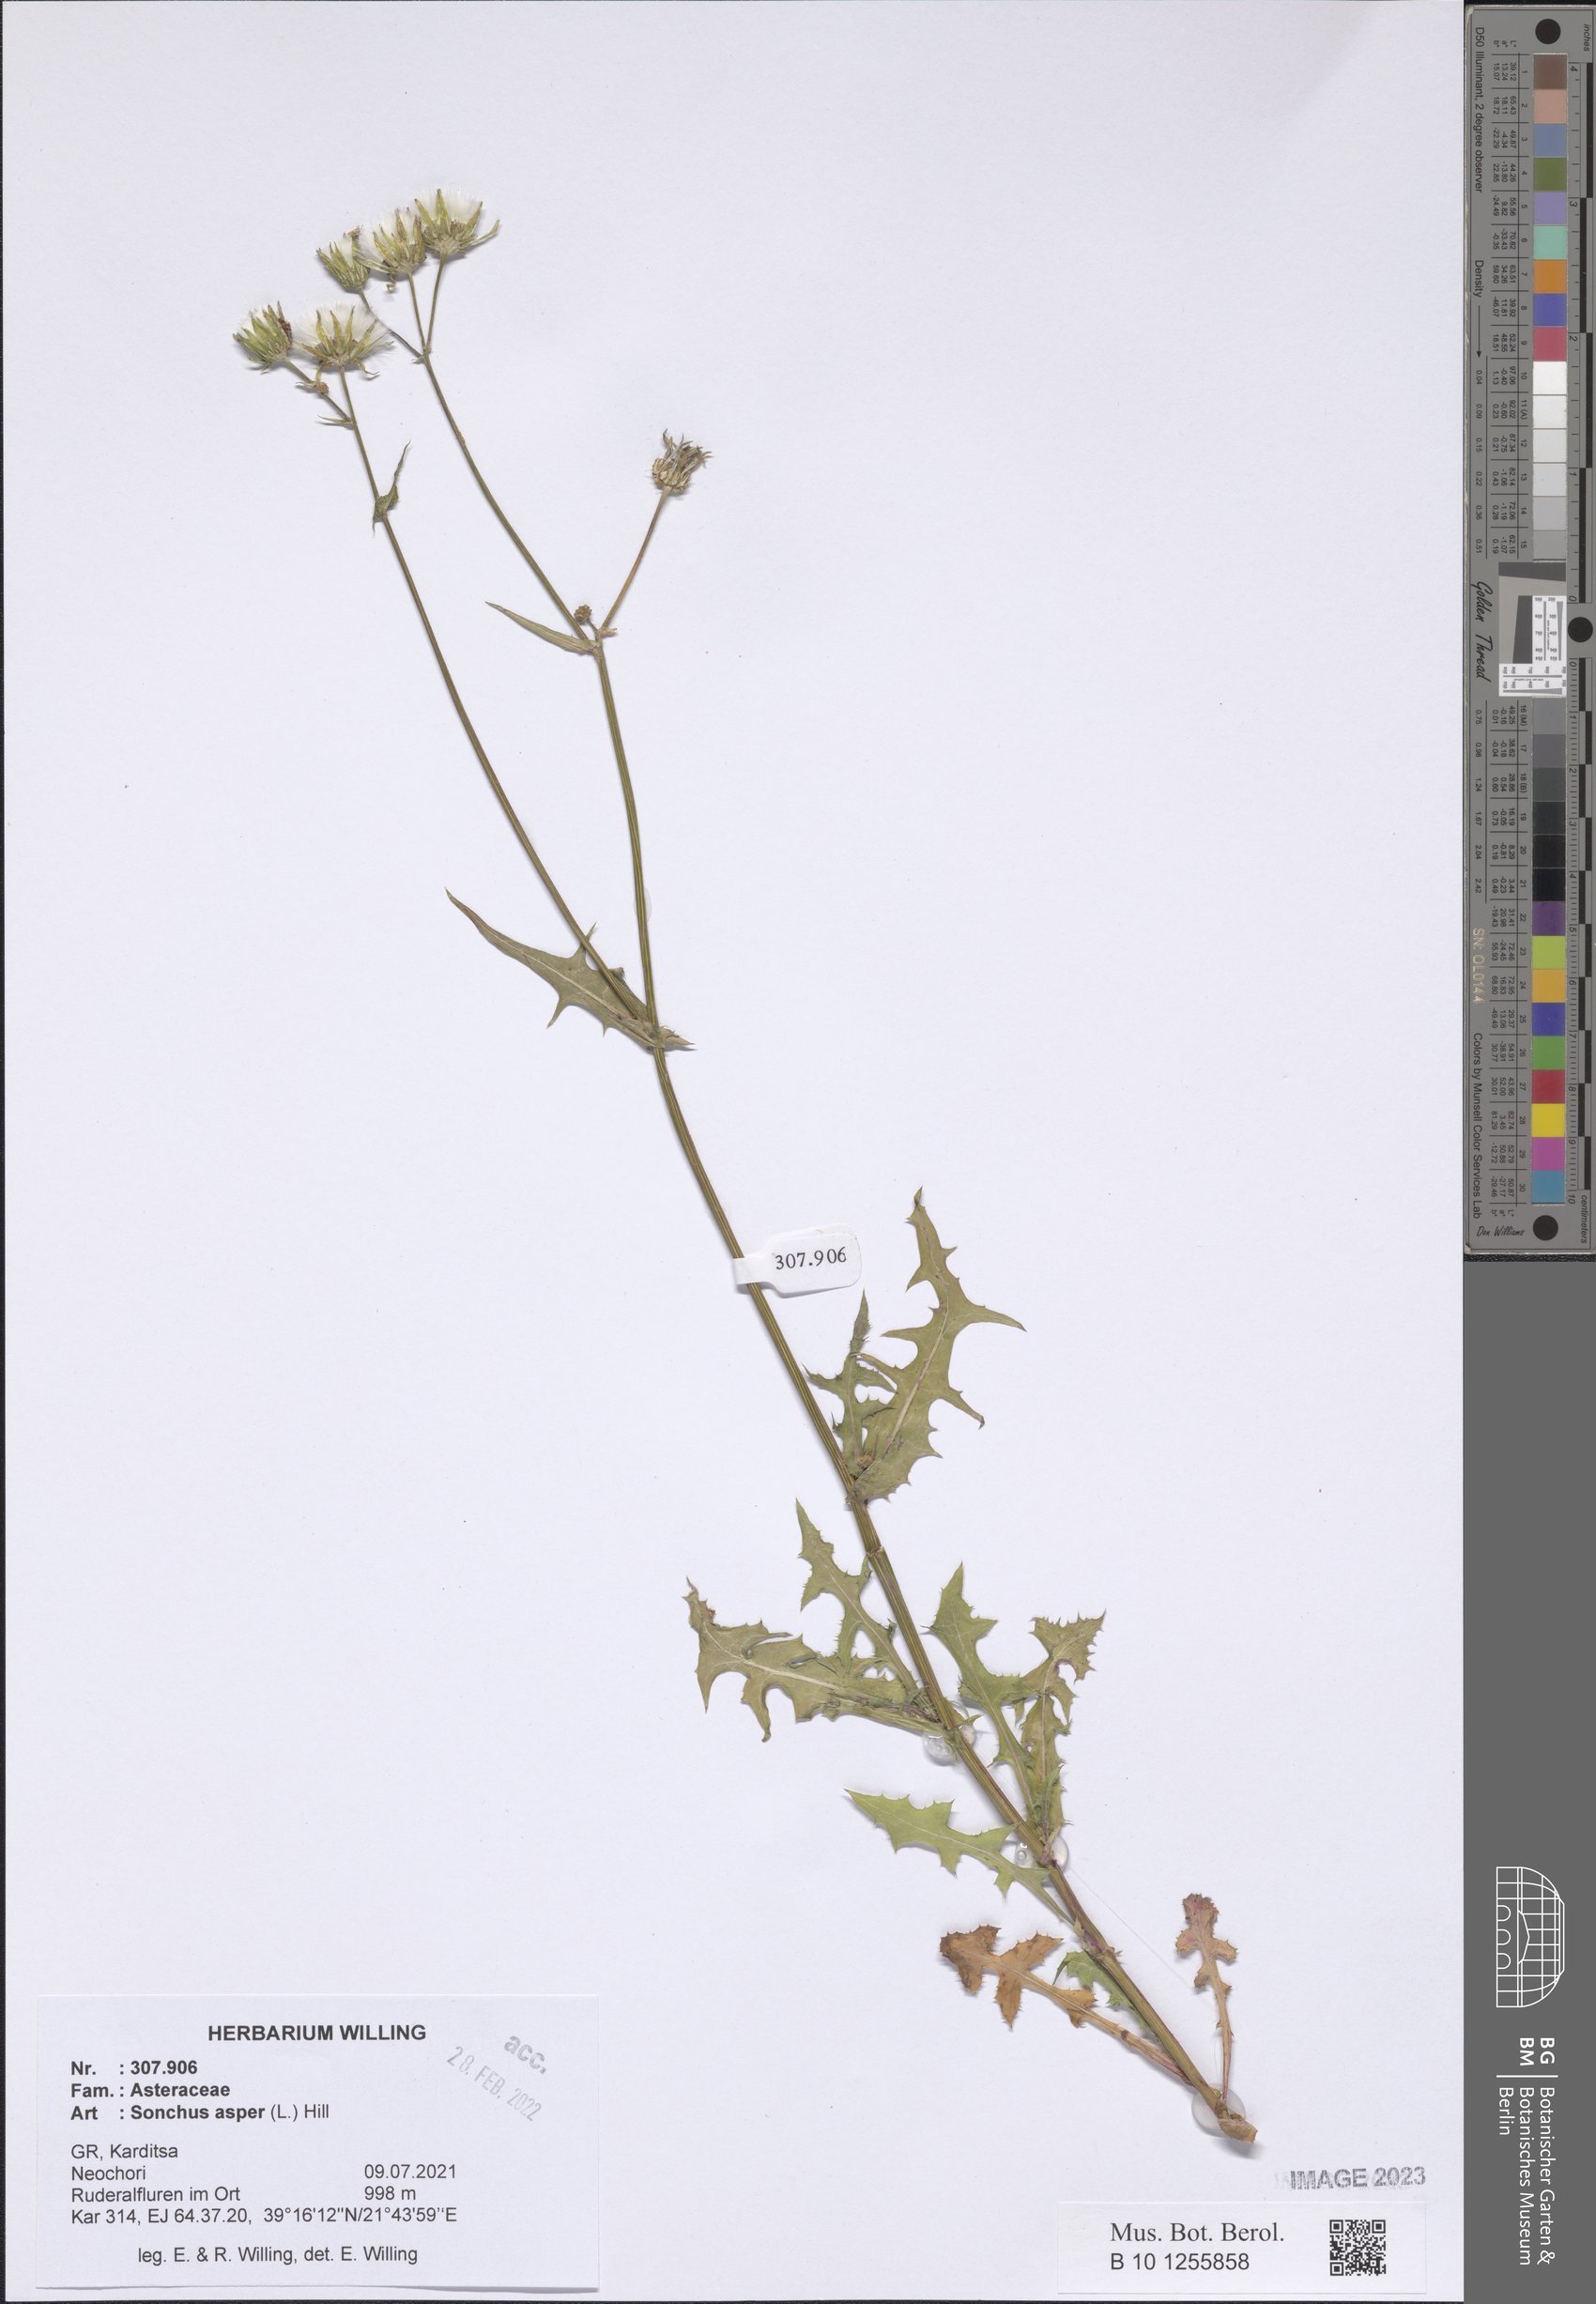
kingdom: Plantae
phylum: Tracheophyta
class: Magnoliopsida
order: Asterales
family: Asteraceae
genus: Sonchus
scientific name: Sonchus asper
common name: Prickly sow-thistle
